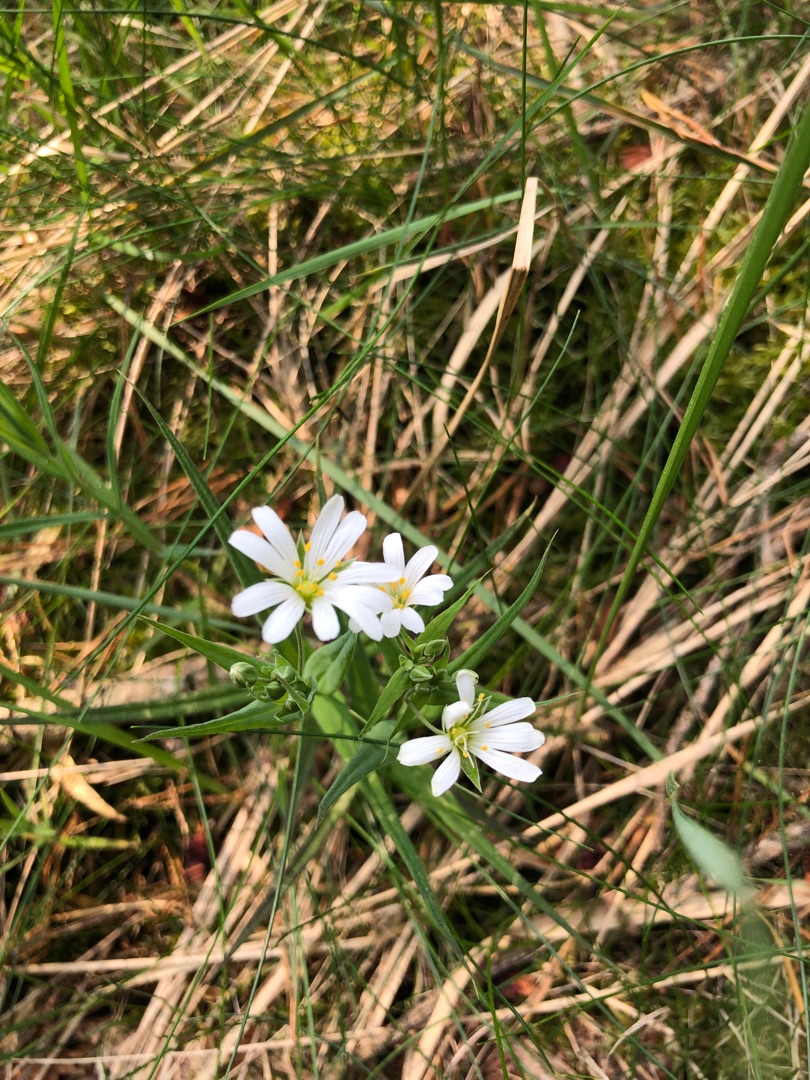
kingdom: Plantae
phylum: Tracheophyta
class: Magnoliopsida
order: Caryophyllales
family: Caryophyllaceae
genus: Rabelera
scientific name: Rabelera holostea
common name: Stor fladstjerne
